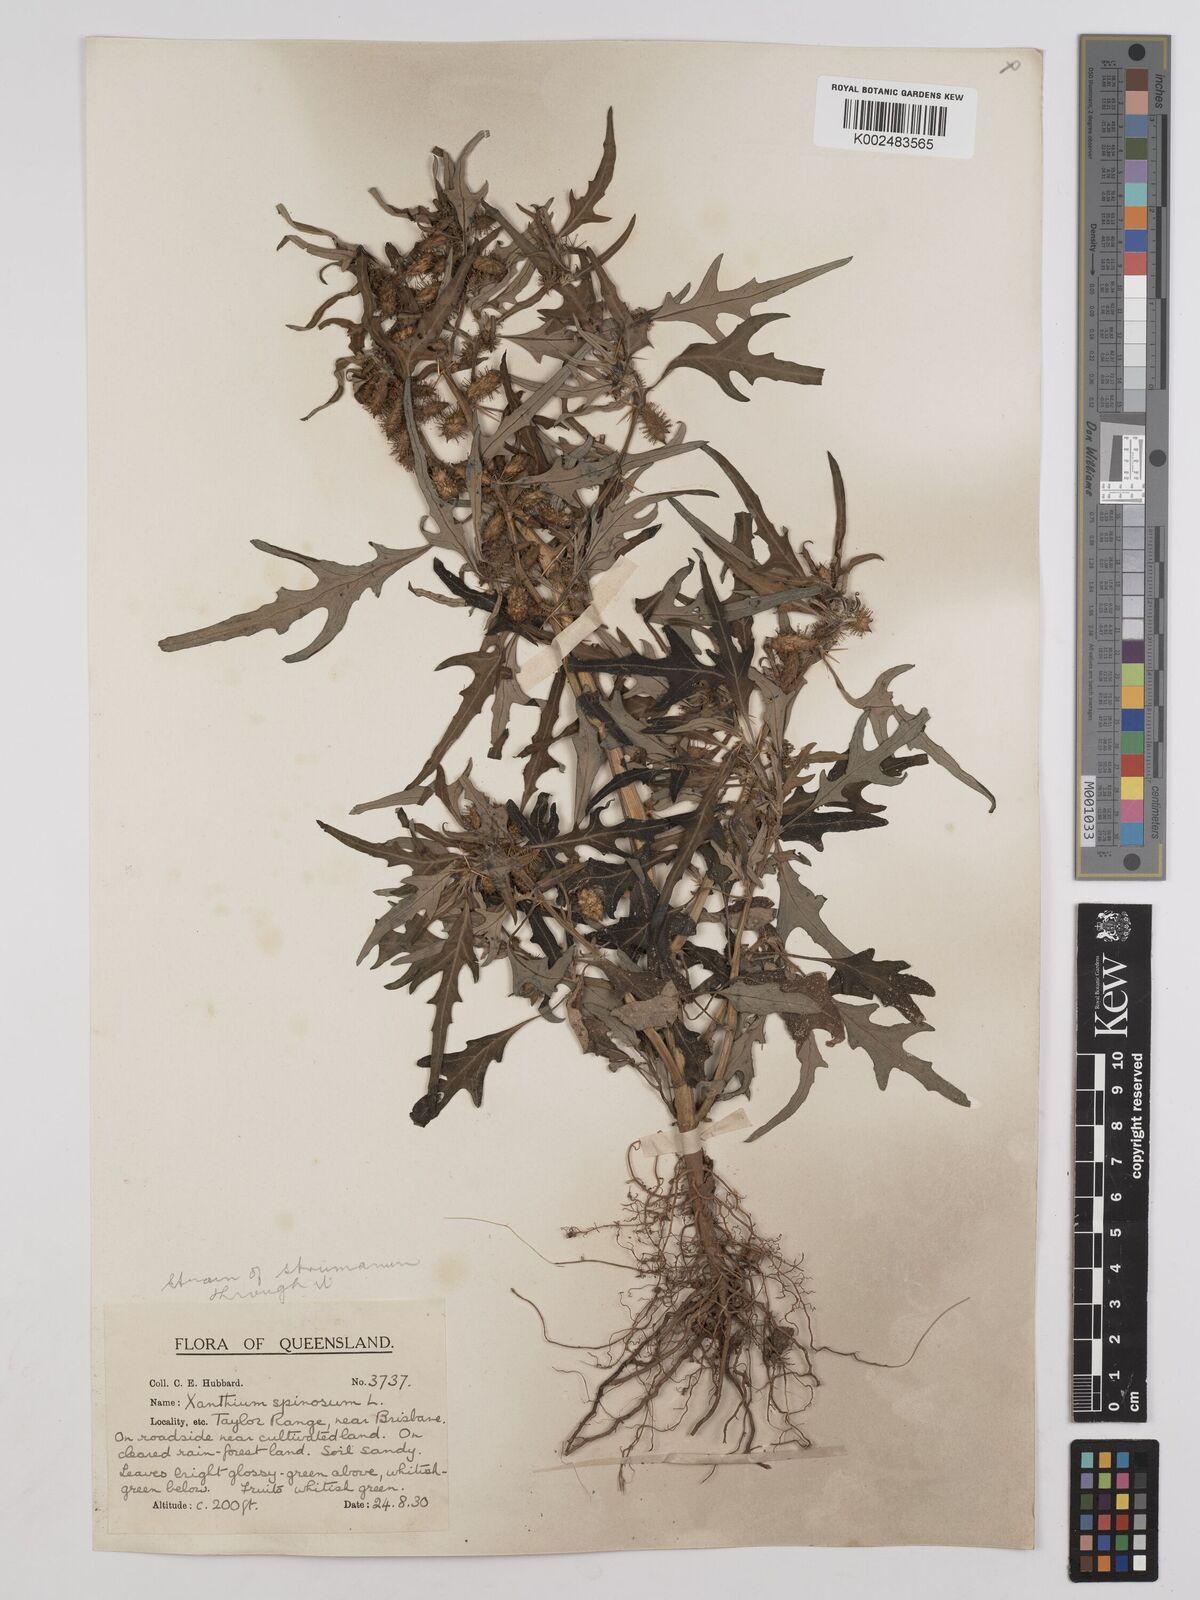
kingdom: Plantae
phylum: Tracheophyta
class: Magnoliopsida
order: Asterales
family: Asteraceae
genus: Xanthium
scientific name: Xanthium spinosum
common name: Spiny cocklebur
